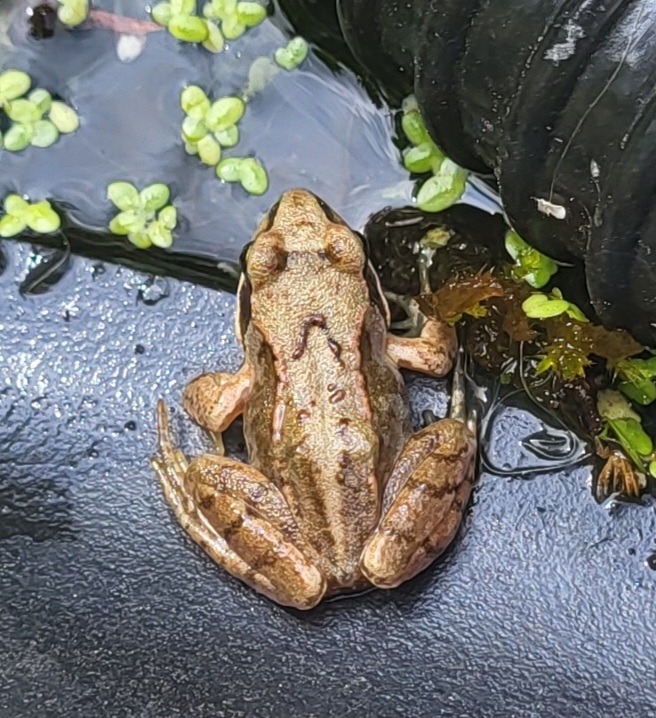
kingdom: Animalia
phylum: Chordata
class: Amphibia
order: Anura
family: Ranidae
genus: Rana
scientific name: Rana temporaria
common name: Butsnudet frø
